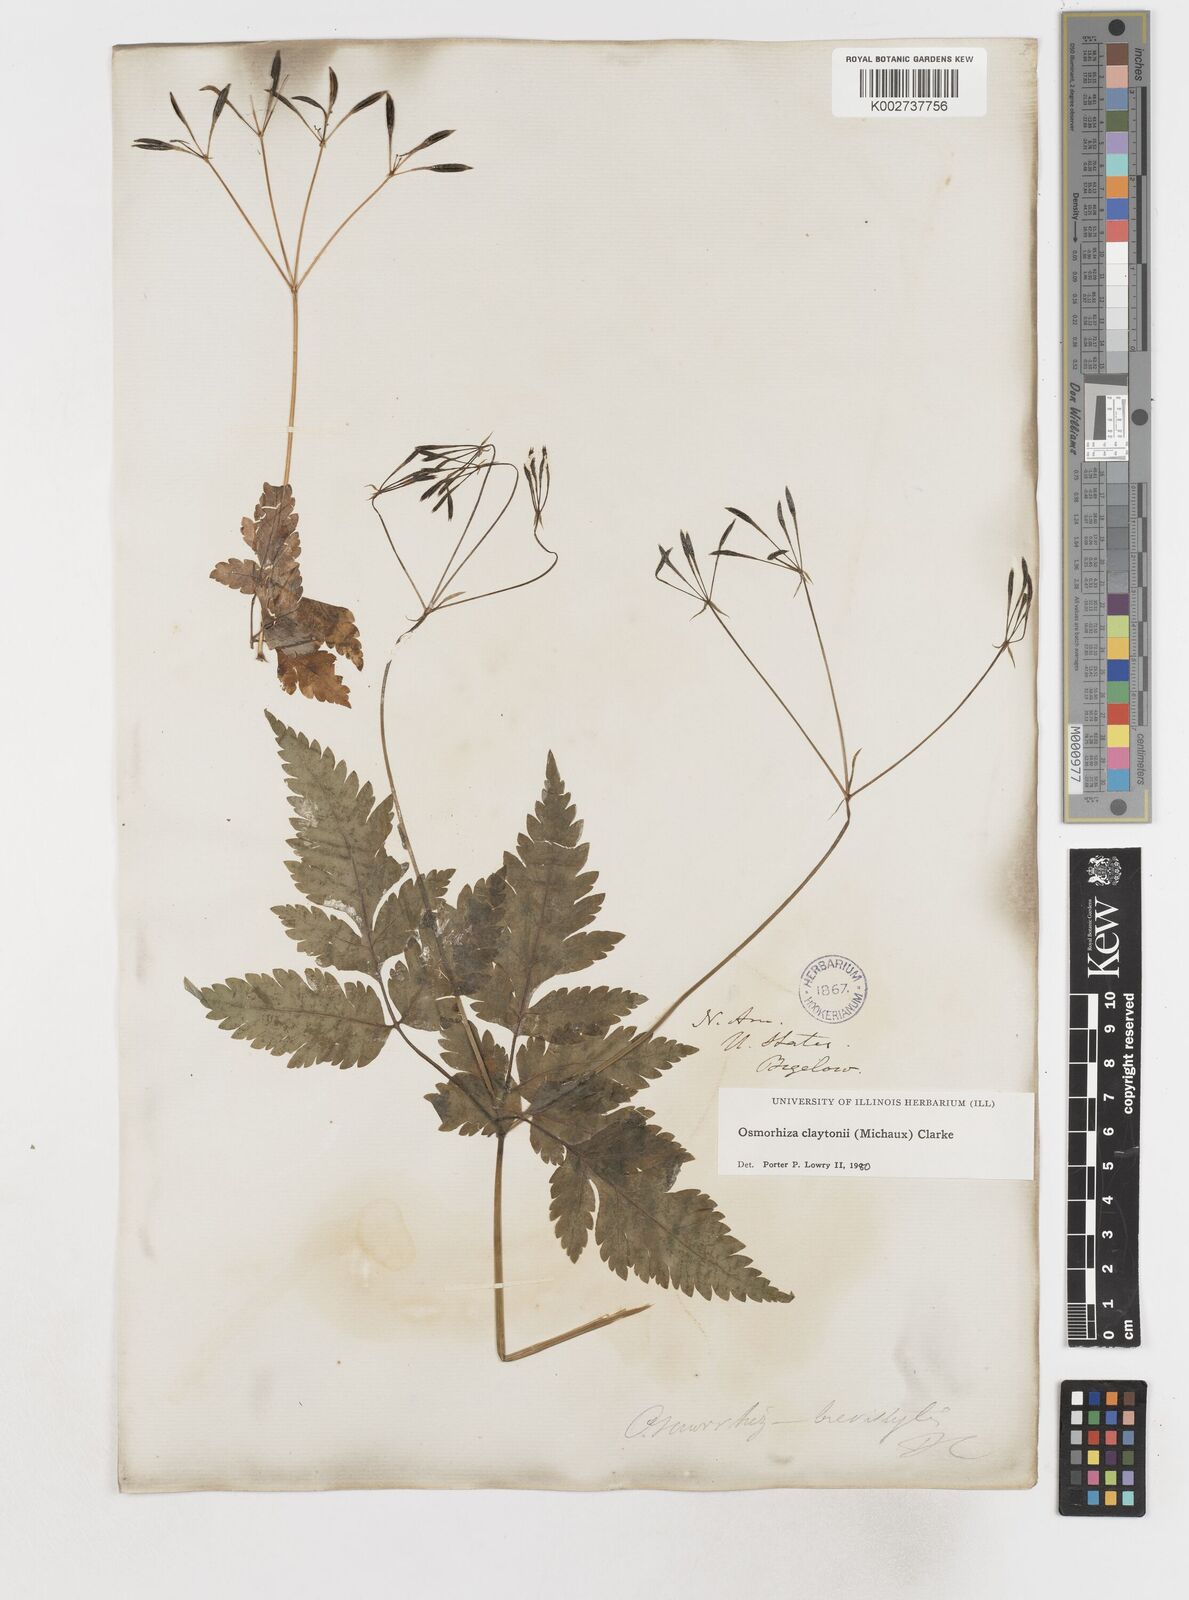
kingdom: Plantae
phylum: Tracheophyta
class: Magnoliopsida
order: Apiales
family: Apiaceae
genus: Osmorhiza
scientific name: Osmorhiza claytonii
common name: Hairy sweet cicely
